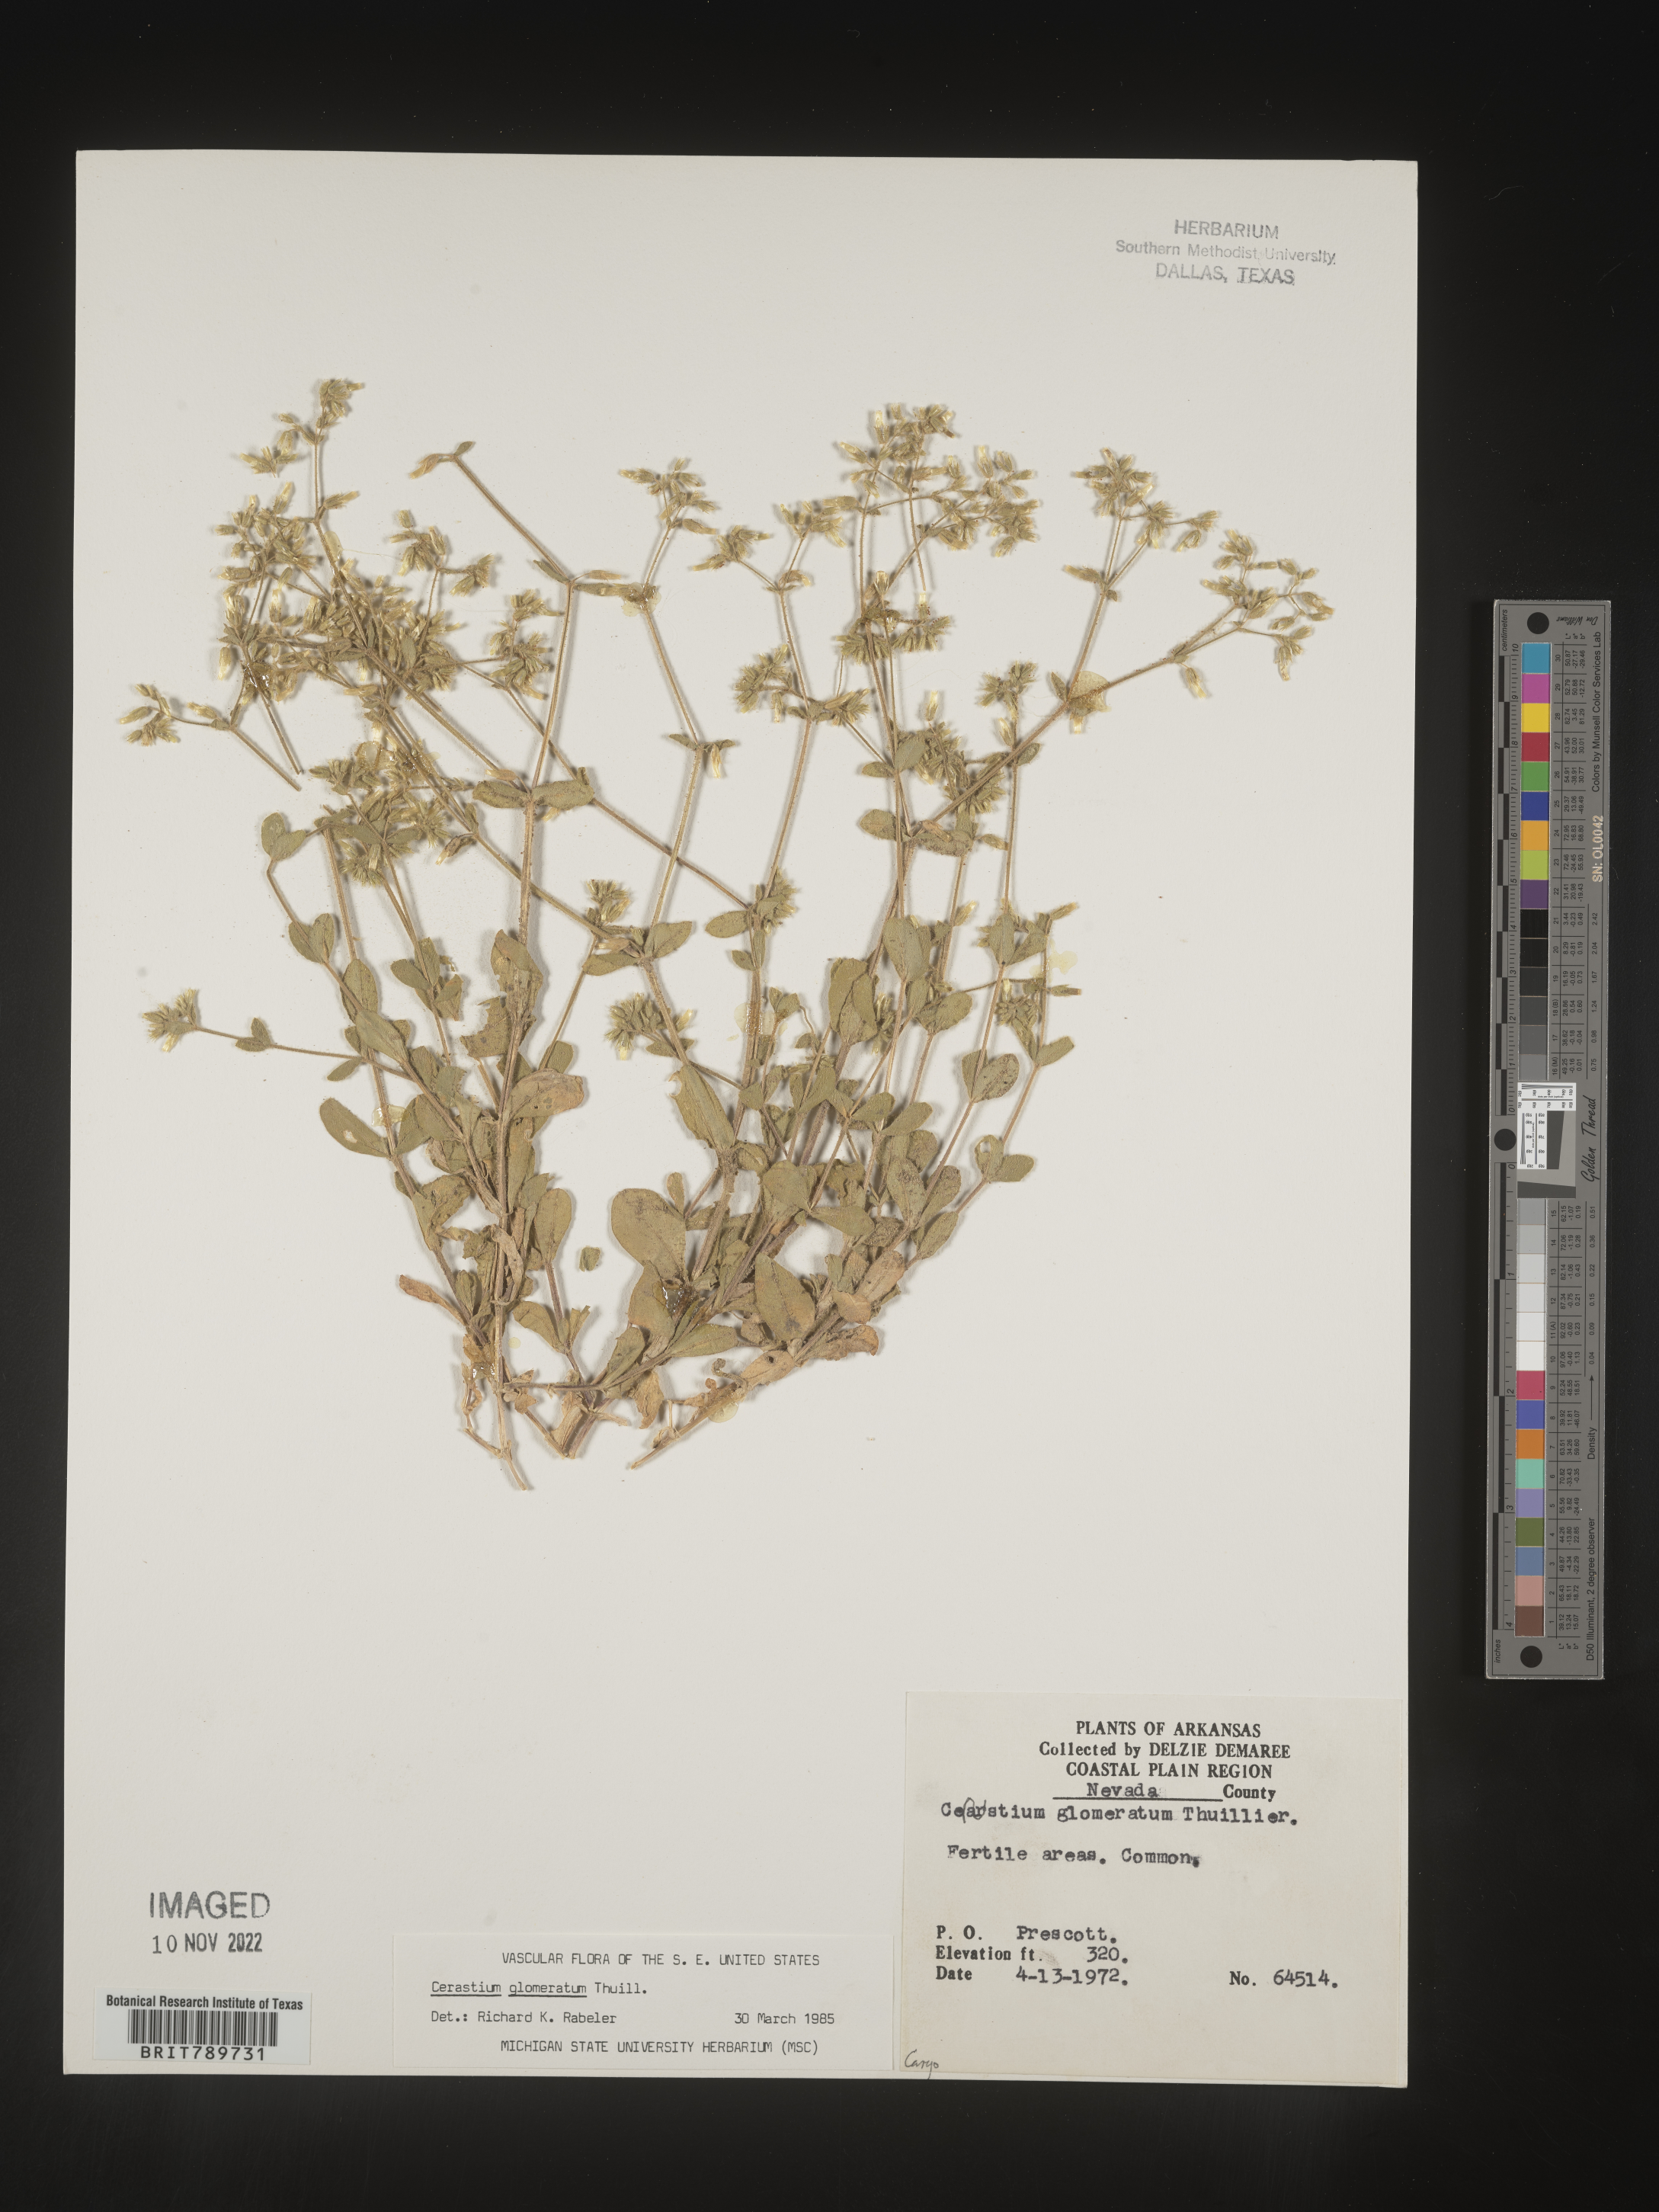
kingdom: Plantae
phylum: Tracheophyta
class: Magnoliopsida
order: Caryophyllales
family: Caryophyllaceae
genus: Cerastium
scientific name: Cerastium glomeratum
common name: Sticky chickweed
